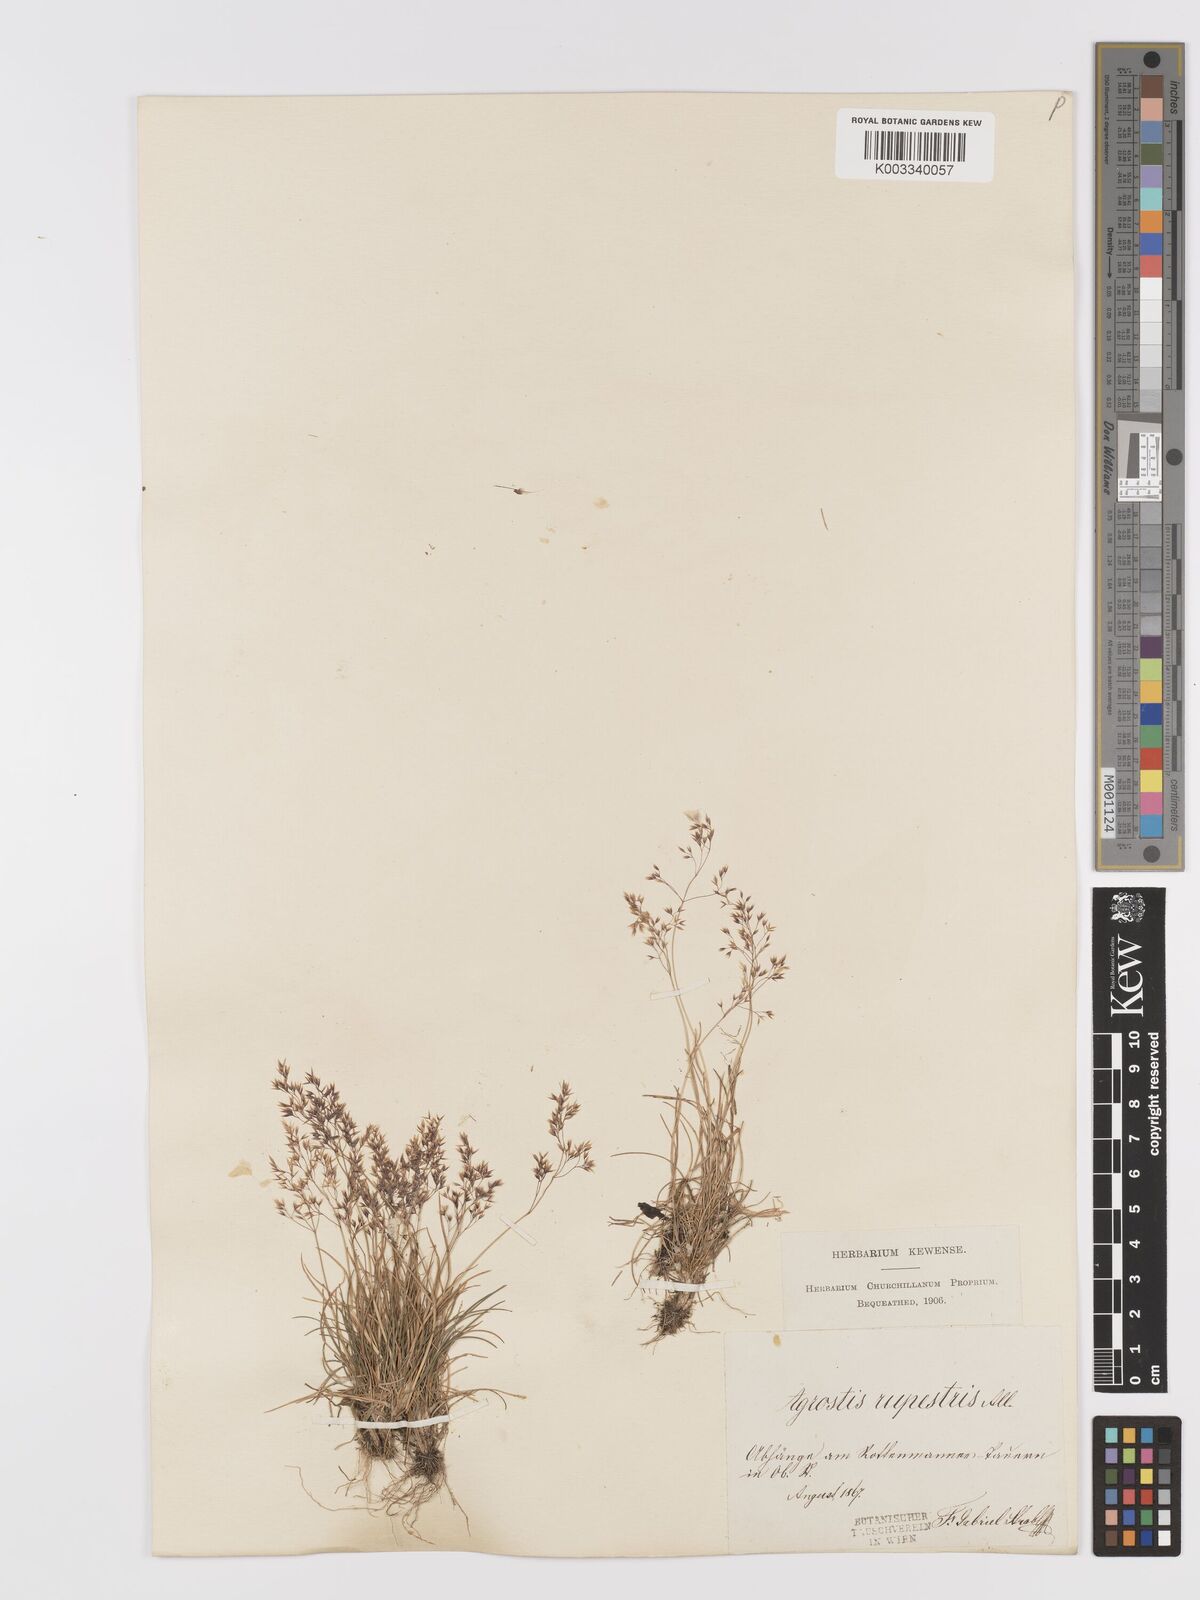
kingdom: Plantae
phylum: Tracheophyta
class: Liliopsida
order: Poales
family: Poaceae
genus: Agrostis
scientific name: Agrostis rupestris
